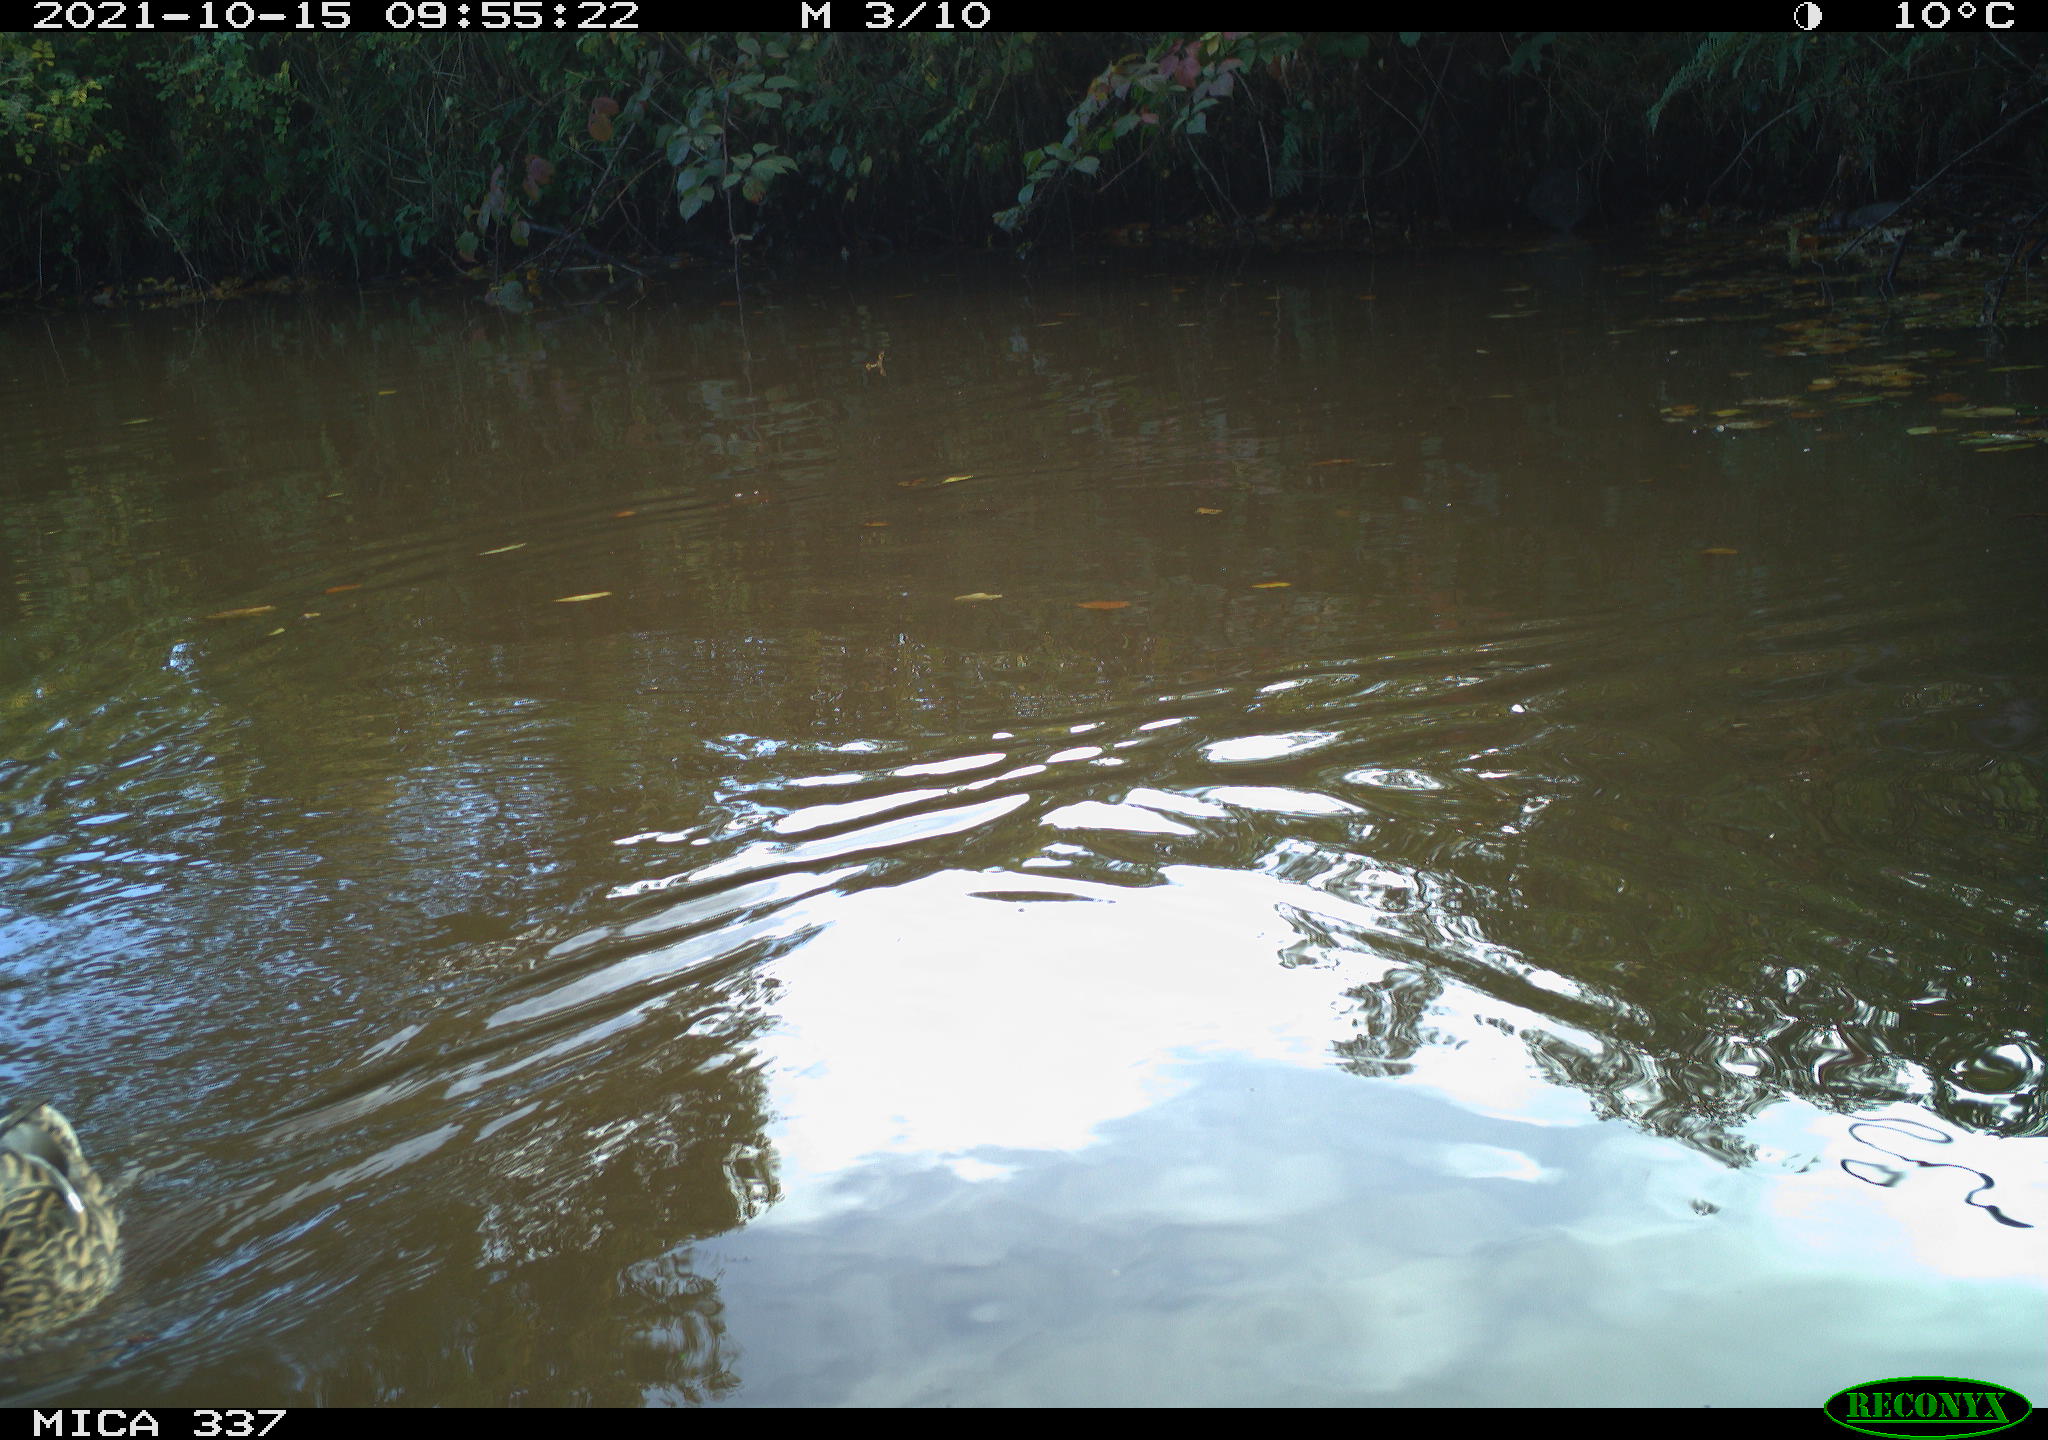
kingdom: Animalia
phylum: Chordata
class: Aves
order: Anseriformes
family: Anatidae
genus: Anas
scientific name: Anas platyrhynchos
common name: Mallard
